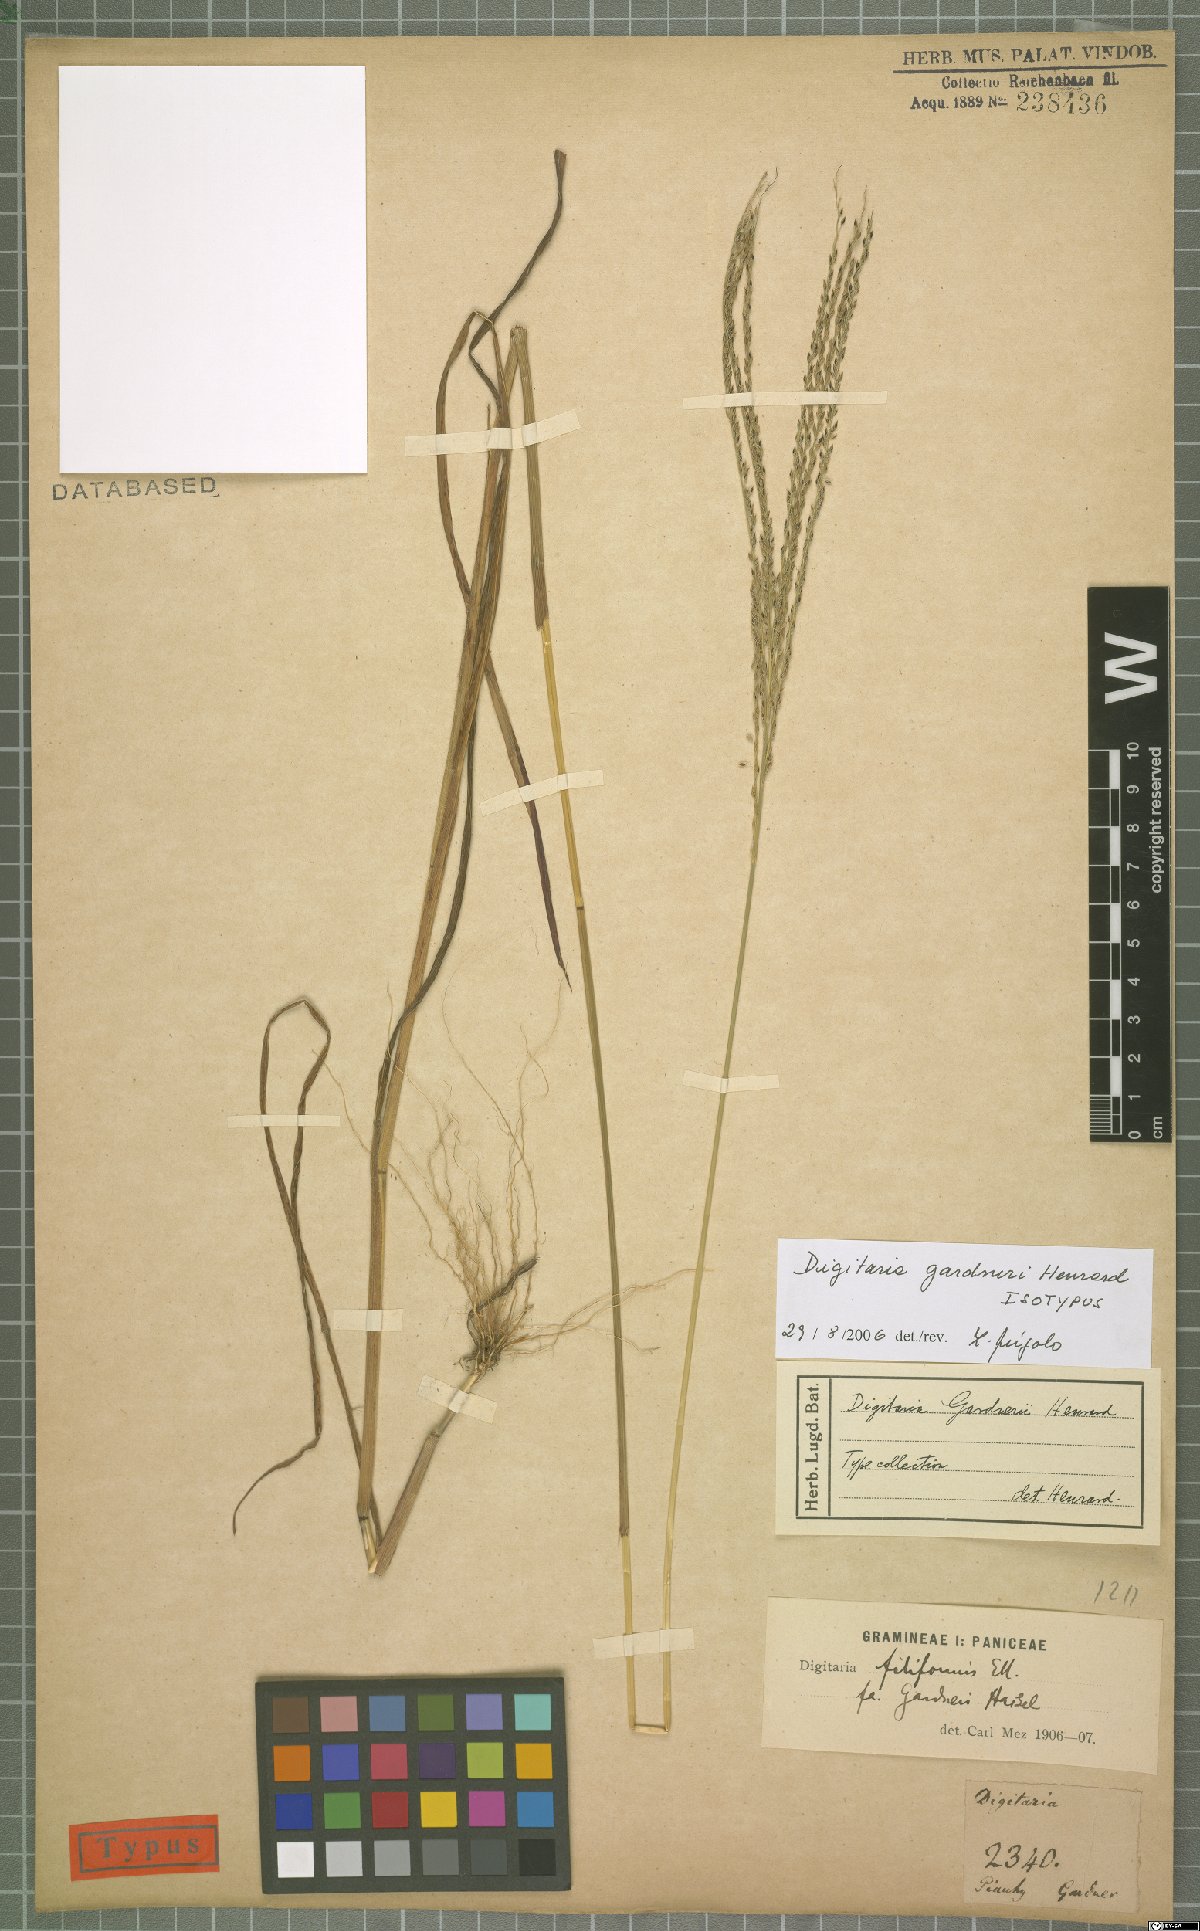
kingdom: Plantae
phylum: Tracheophyta
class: Liliopsida
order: Poales
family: Poaceae
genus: Digitaria
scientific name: Digitaria gardneri
